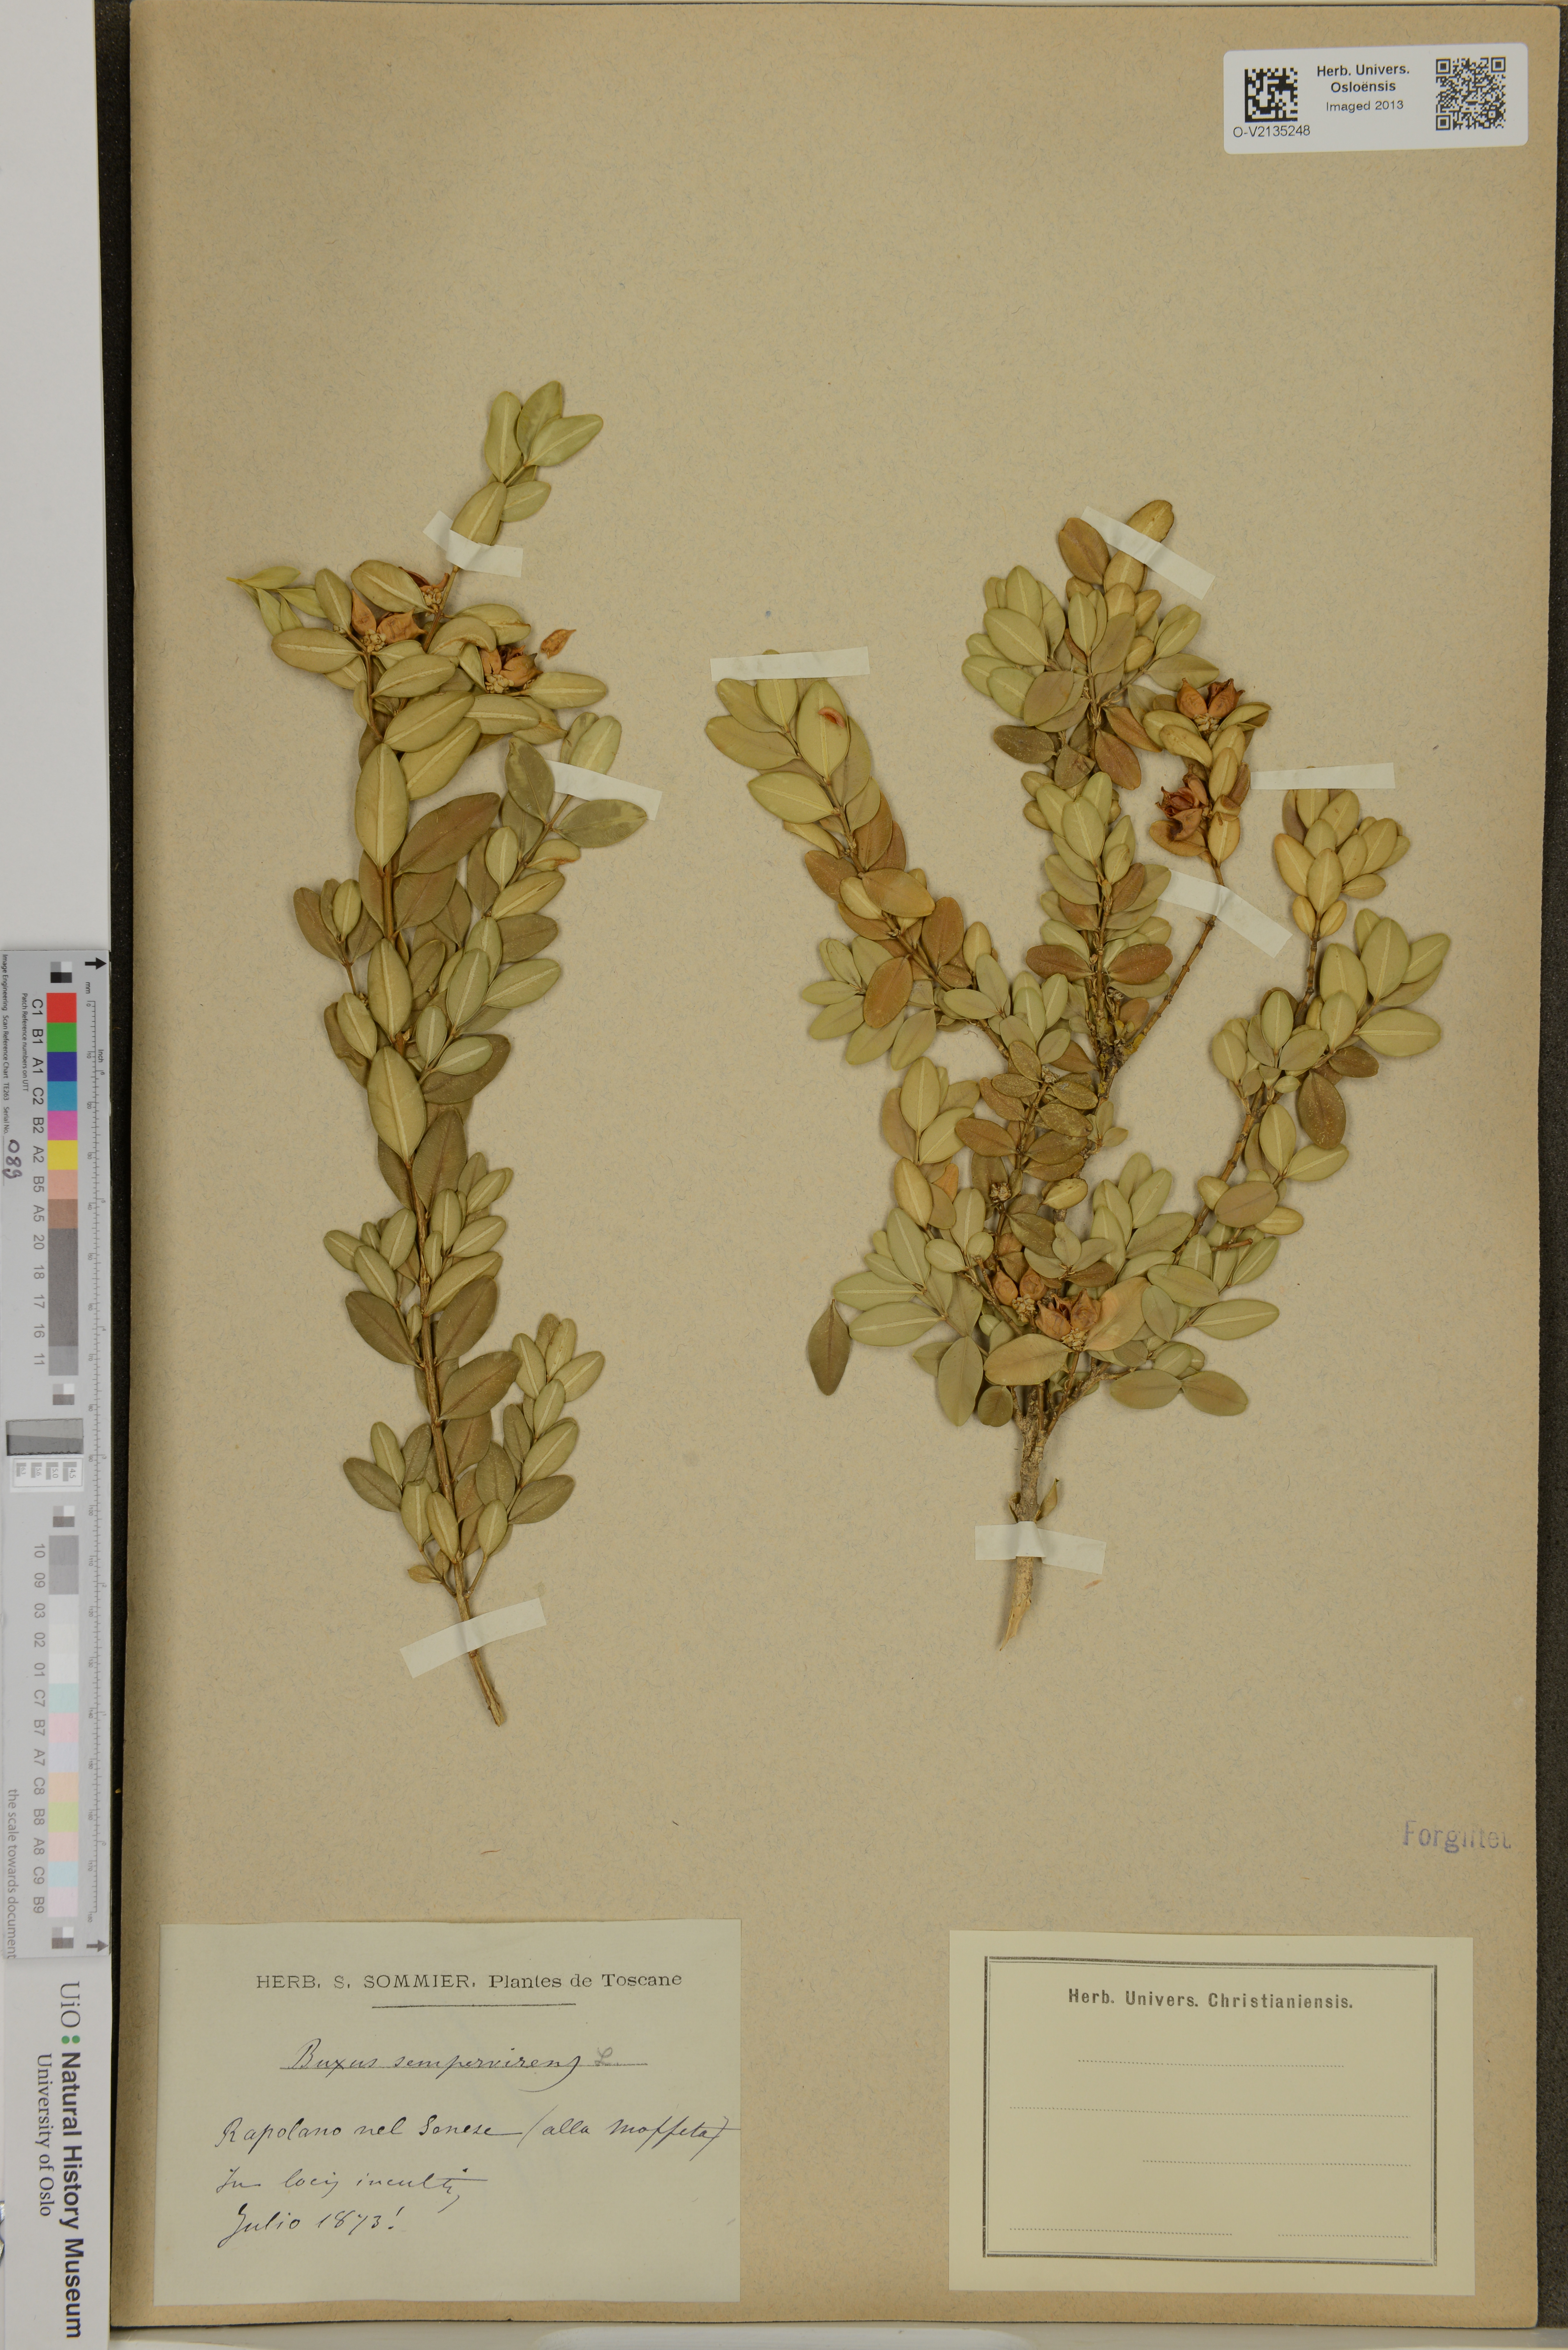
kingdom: Plantae
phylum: Tracheophyta
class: Magnoliopsida
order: Buxales
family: Buxaceae
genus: Buxus
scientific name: Buxus sempervirens
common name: Box
